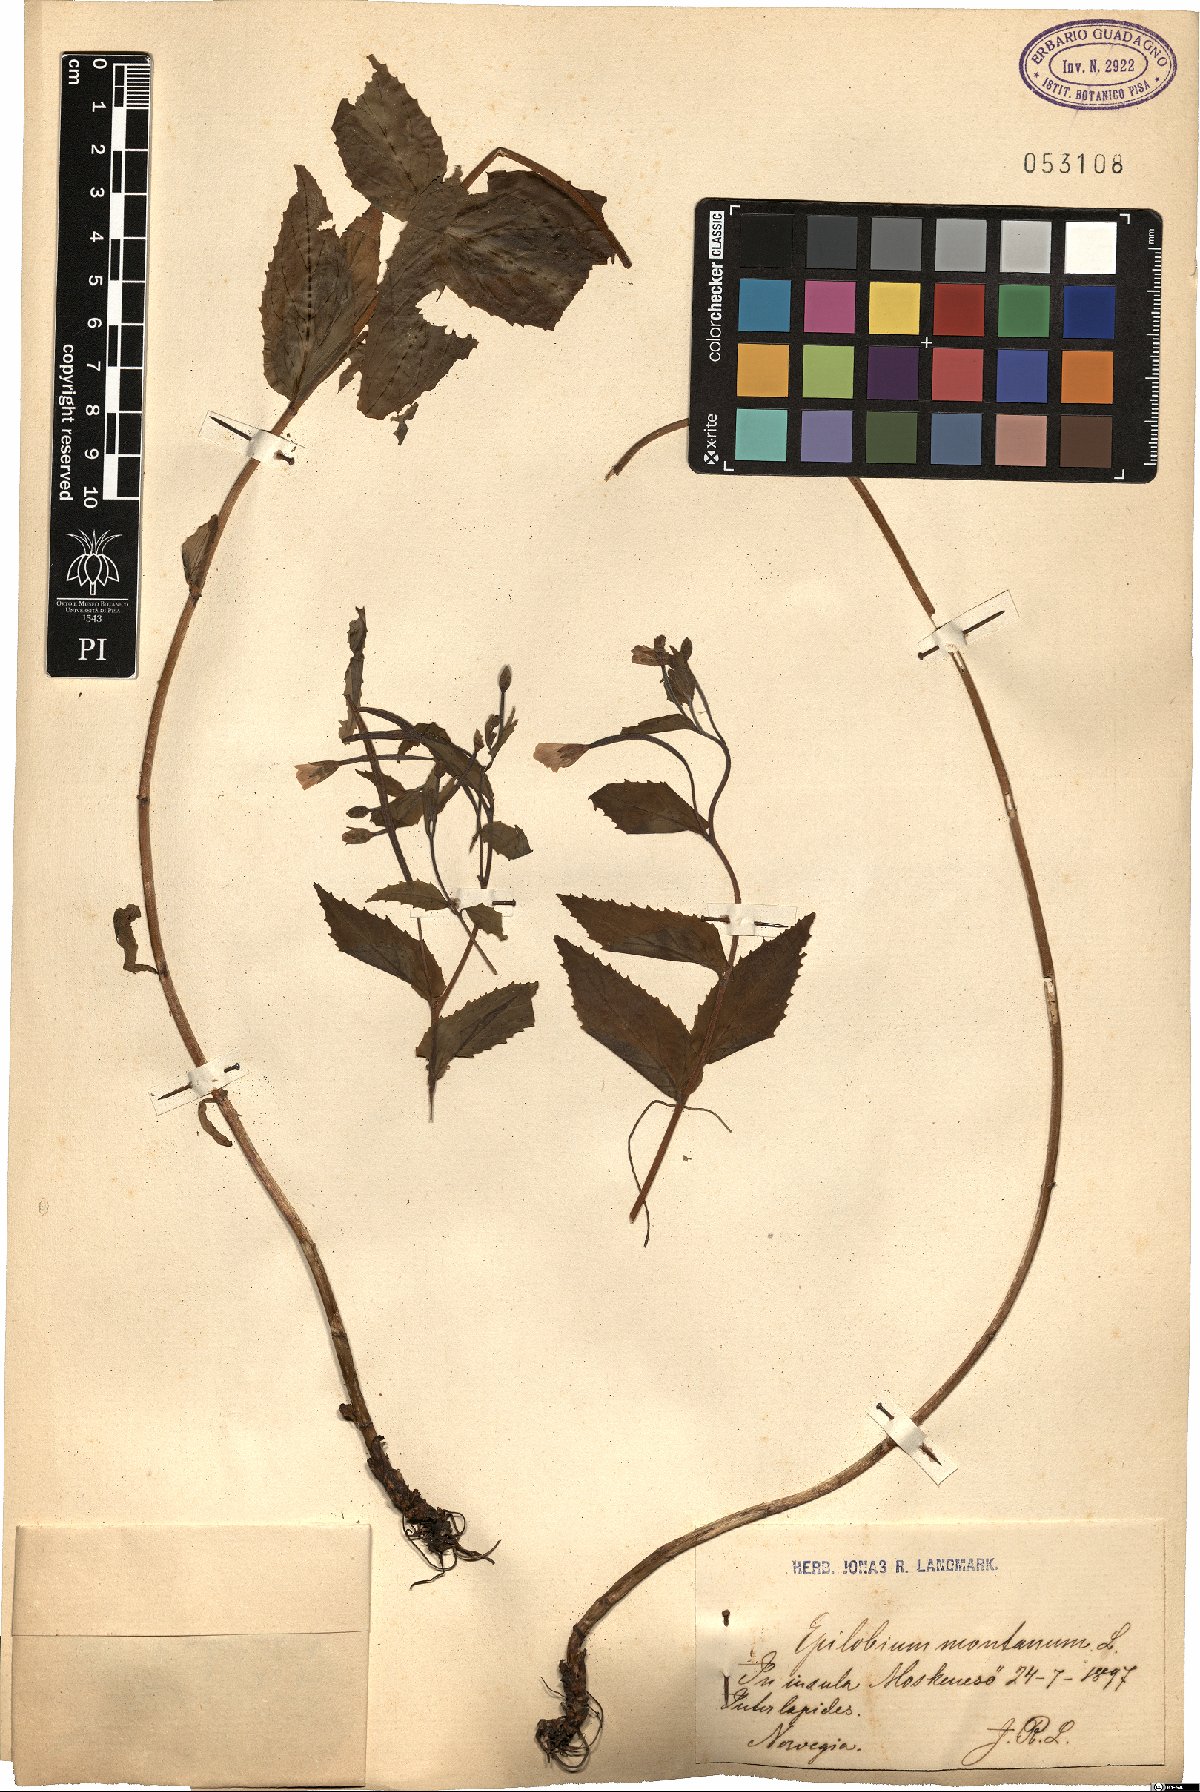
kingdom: Plantae
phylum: Tracheophyta
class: Magnoliopsida
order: Myrtales
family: Onagraceae
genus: Epilobium
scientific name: Epilobium montanum
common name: Broad-leaved willowherb
